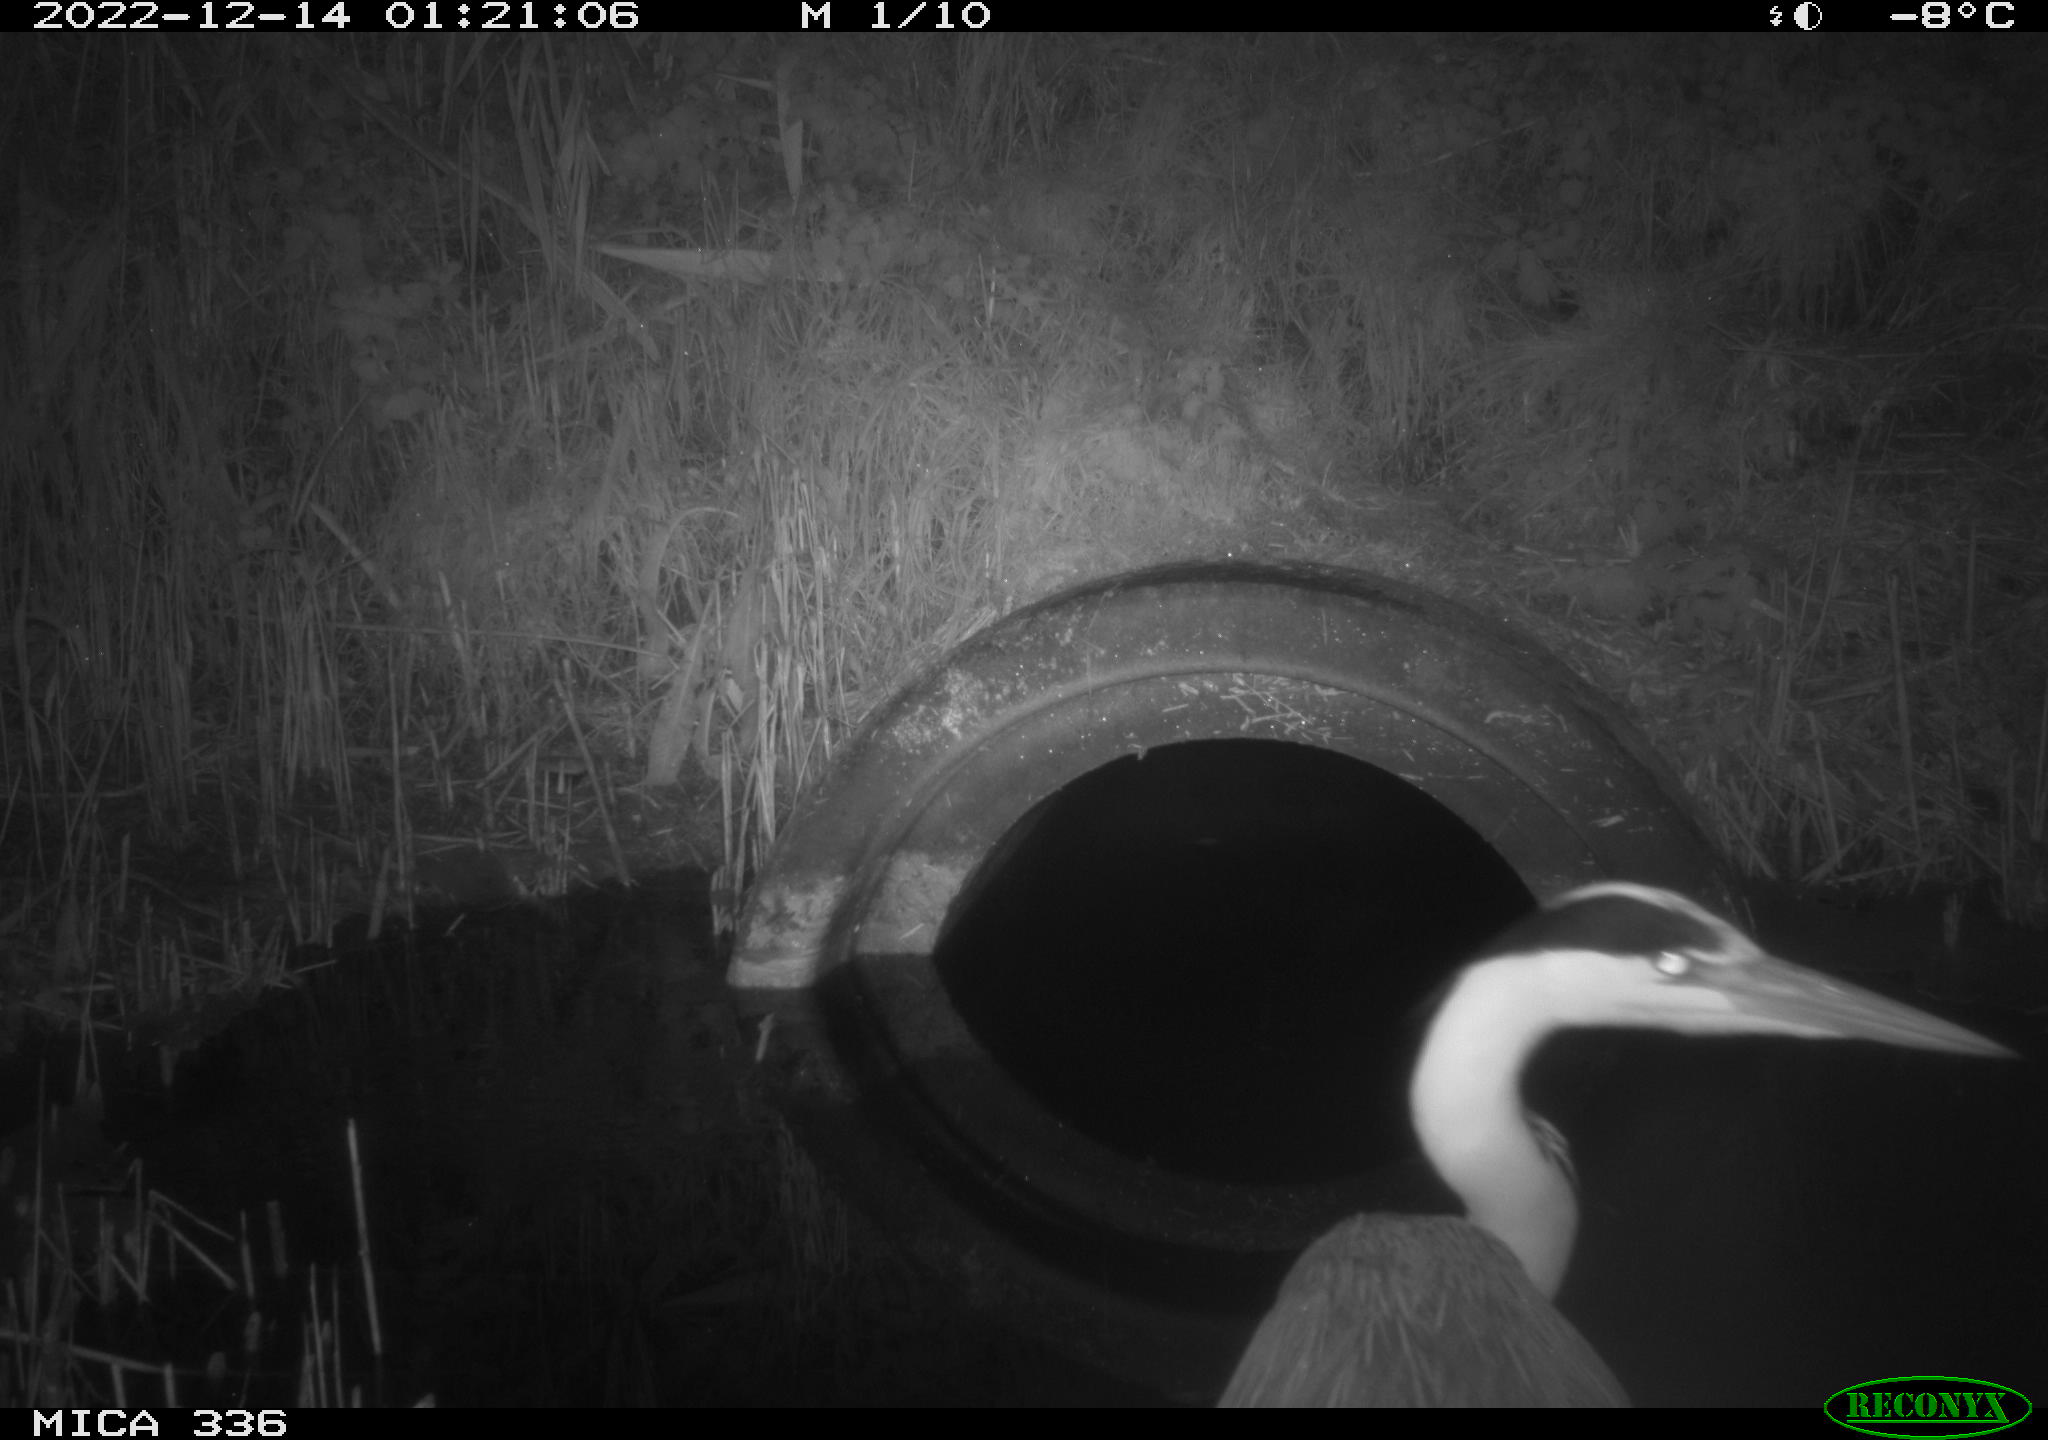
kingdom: Animalia
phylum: Chordata
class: Aves
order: Pelecaniformes
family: Ardeidae
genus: Ardea
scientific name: Ardea cinerea
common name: Grey heron
